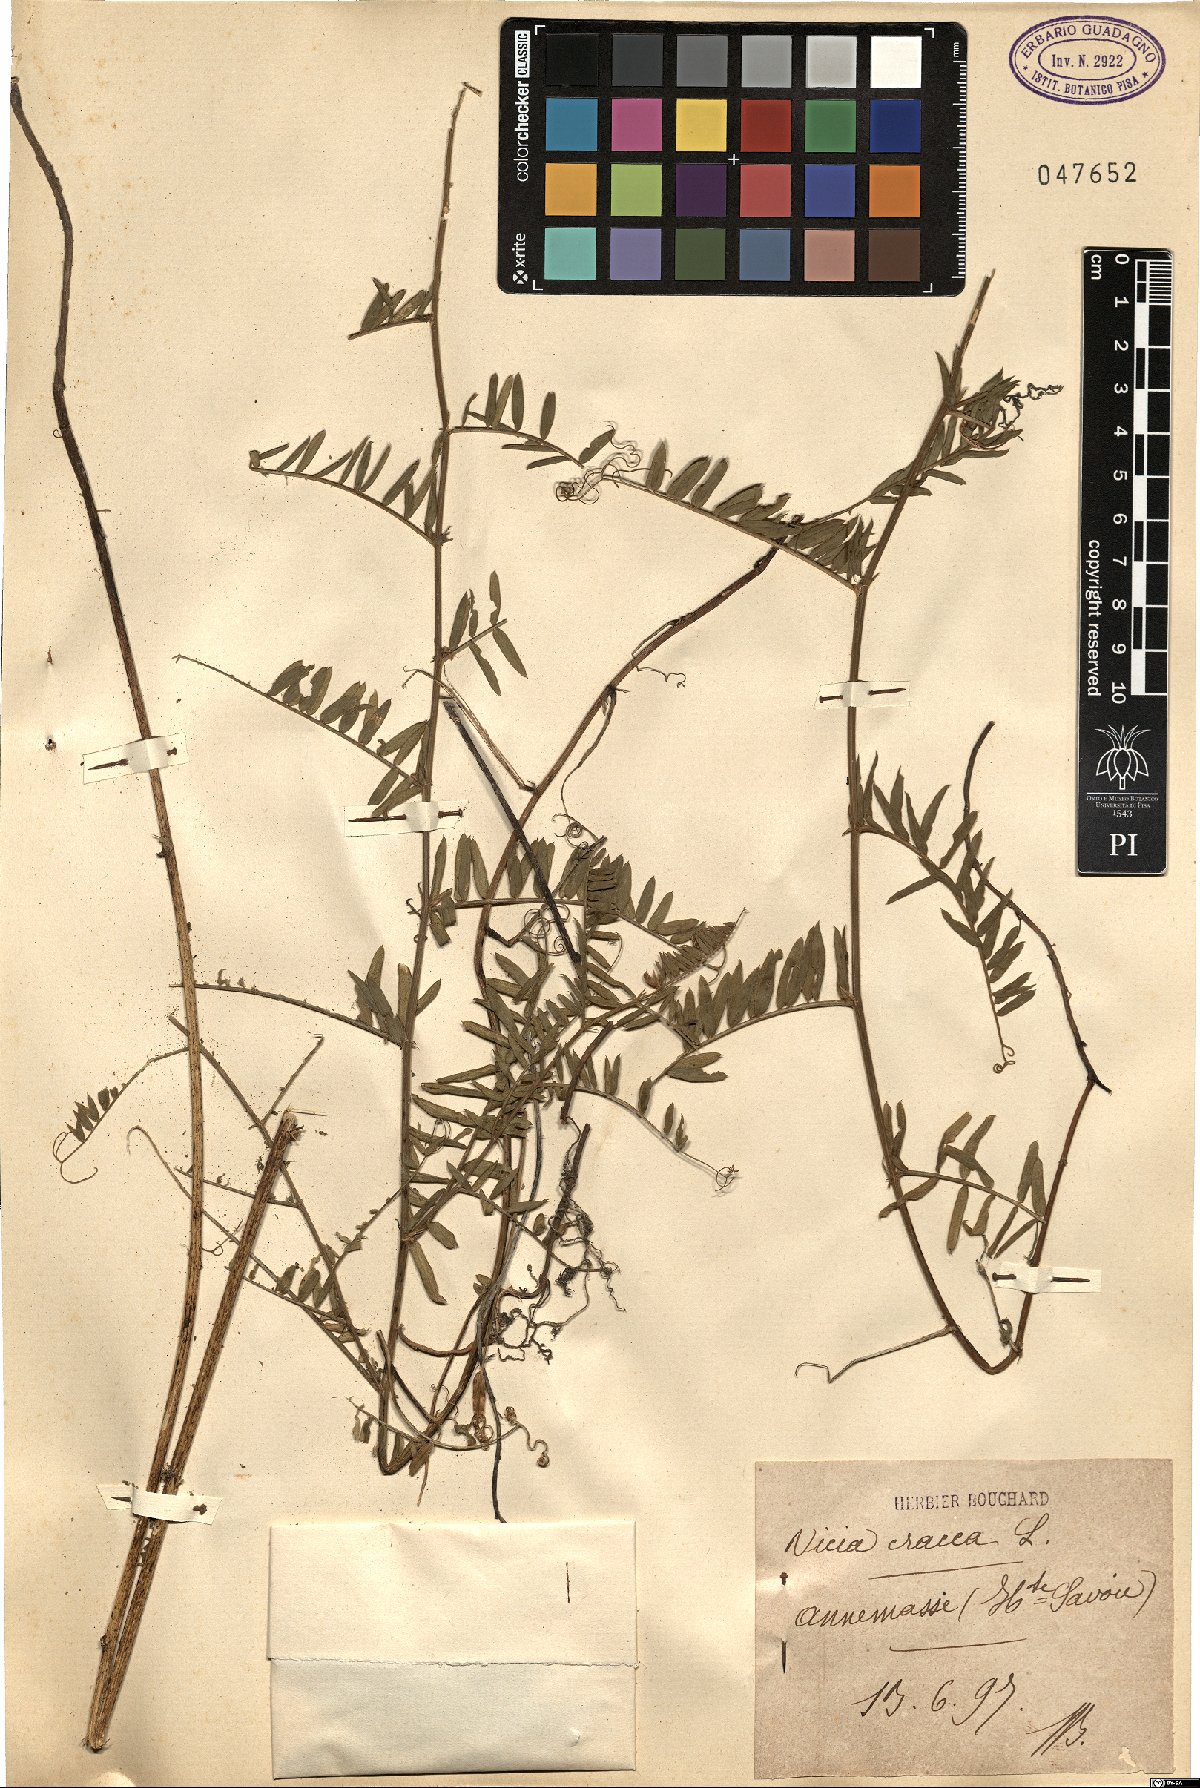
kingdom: Plantae
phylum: Tracheophyta
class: Magnoliopsida
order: Fabales
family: Fabaceae
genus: Vicia
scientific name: Vicia cracca
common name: Bird vetch
